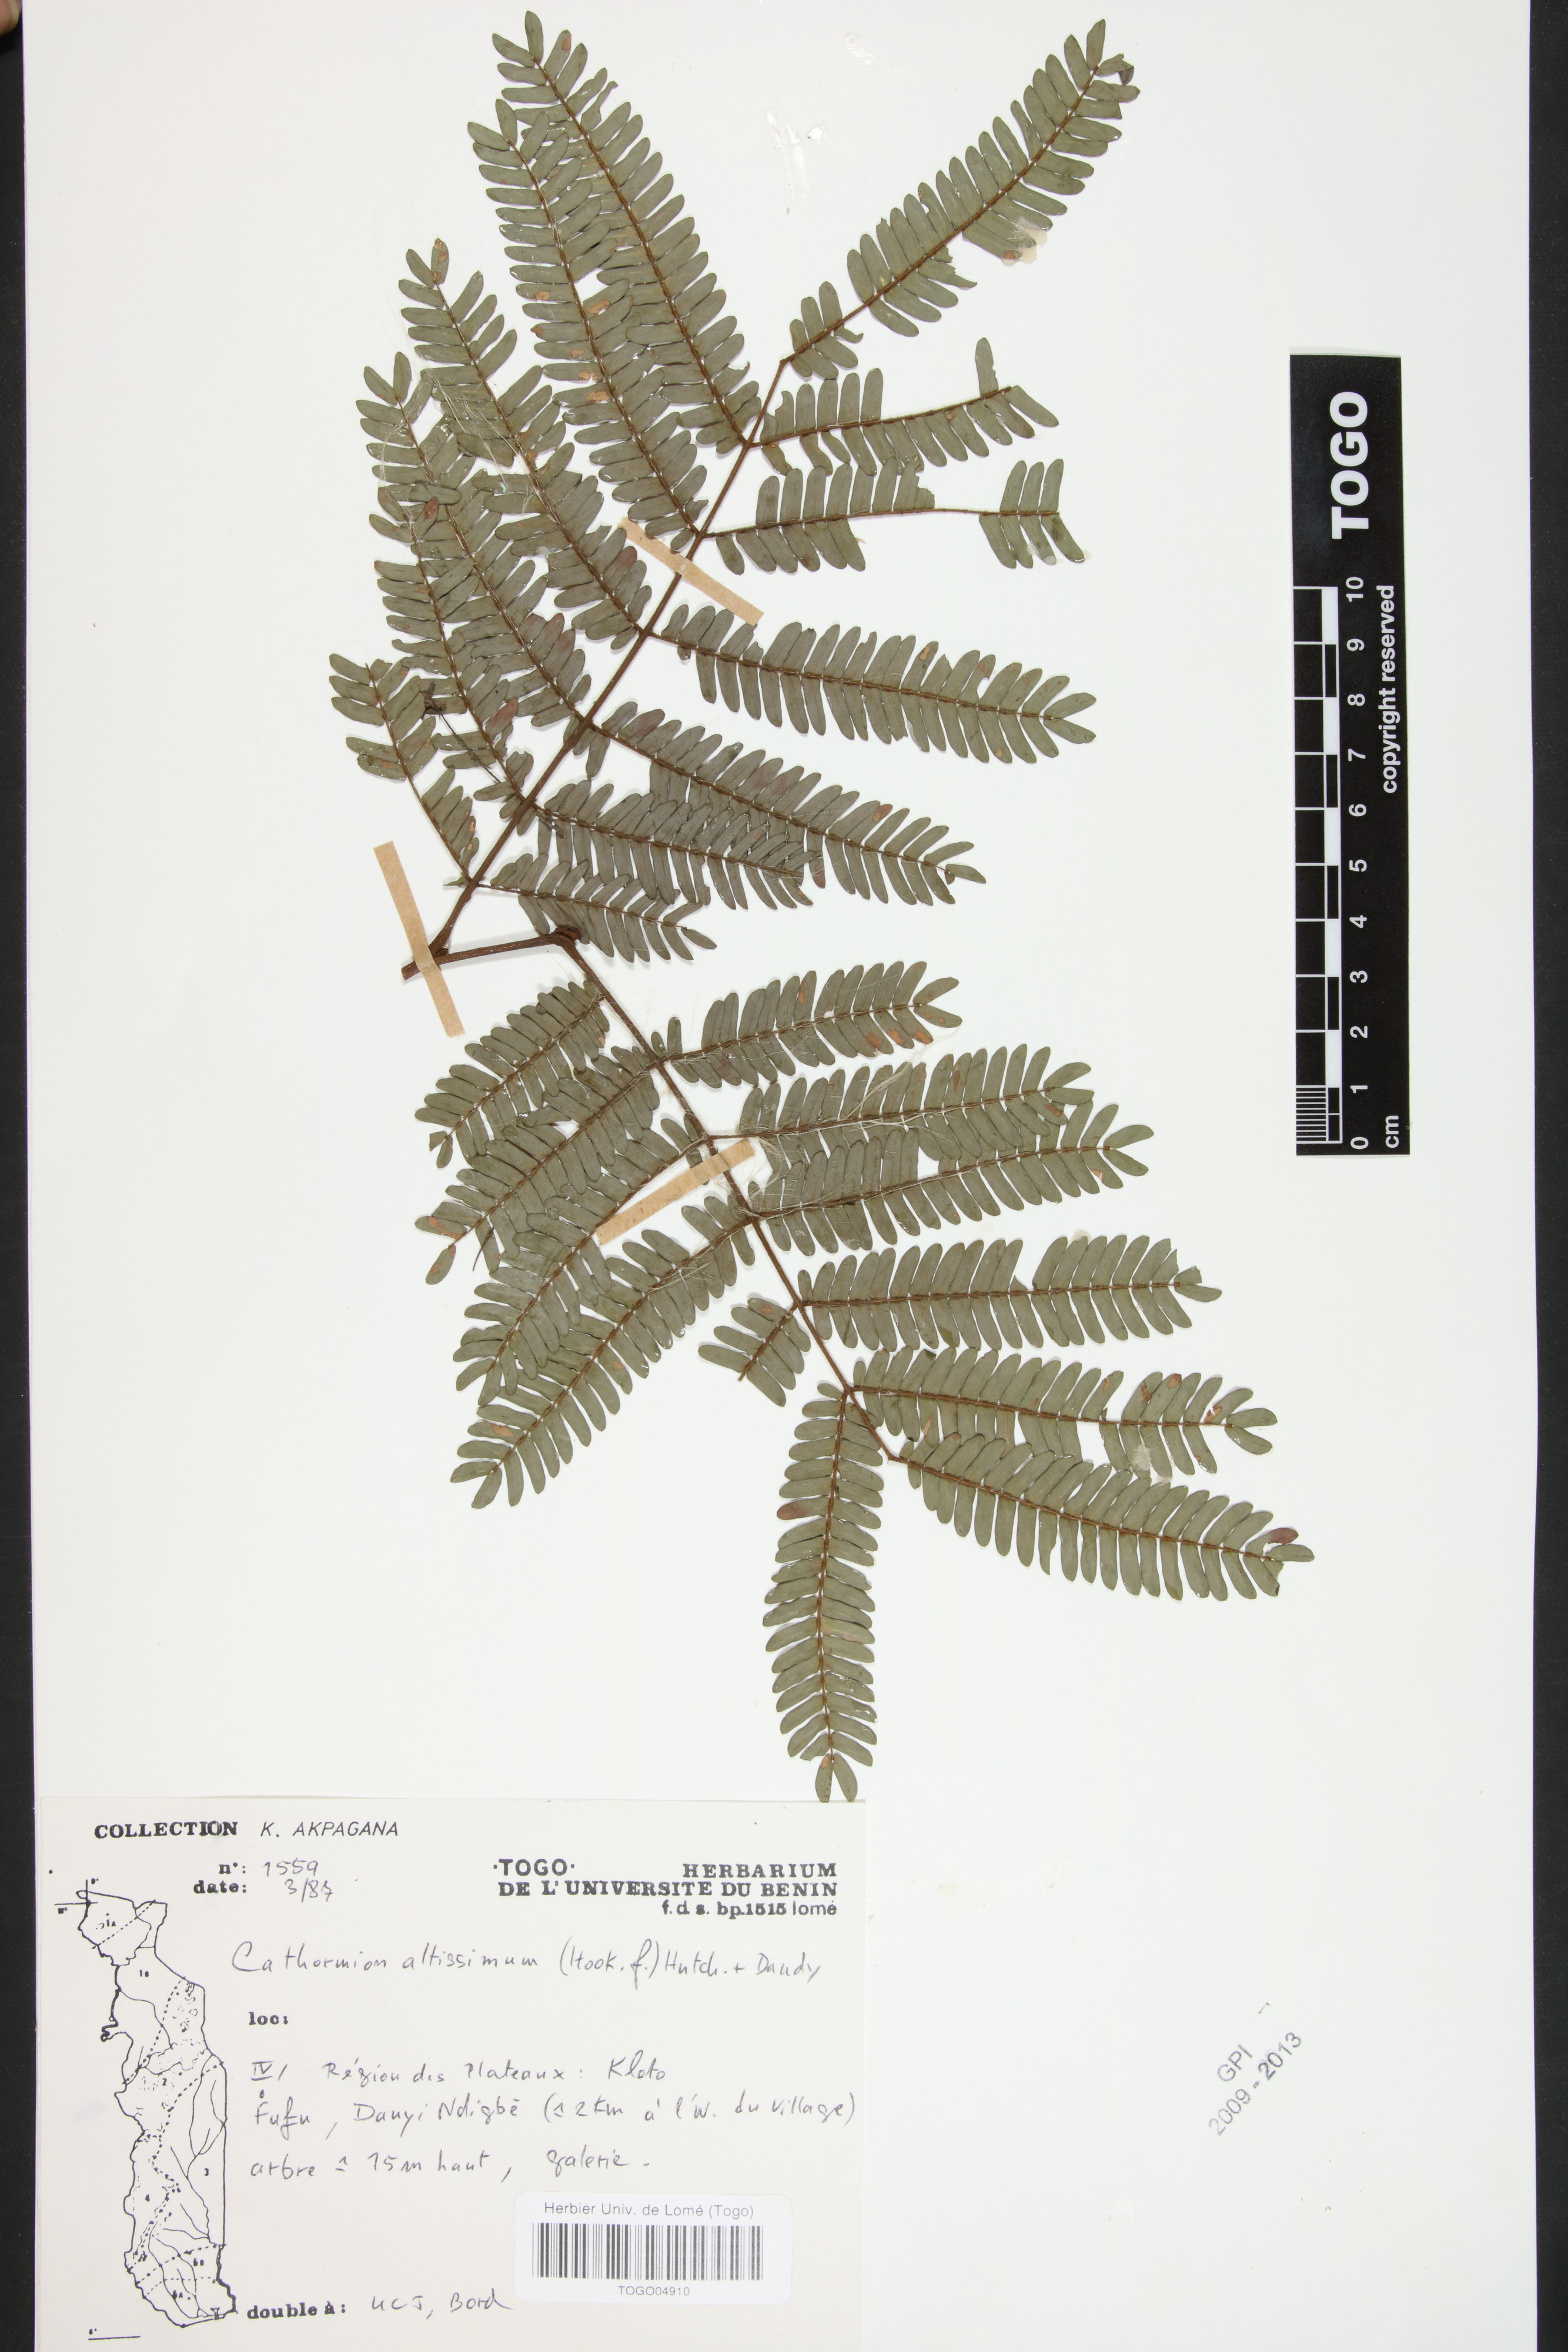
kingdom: Plantae
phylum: Tracheophyta
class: Magnoliopsida
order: Fabales
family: Fabaceae
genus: Albizia
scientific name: Albizia altissima
